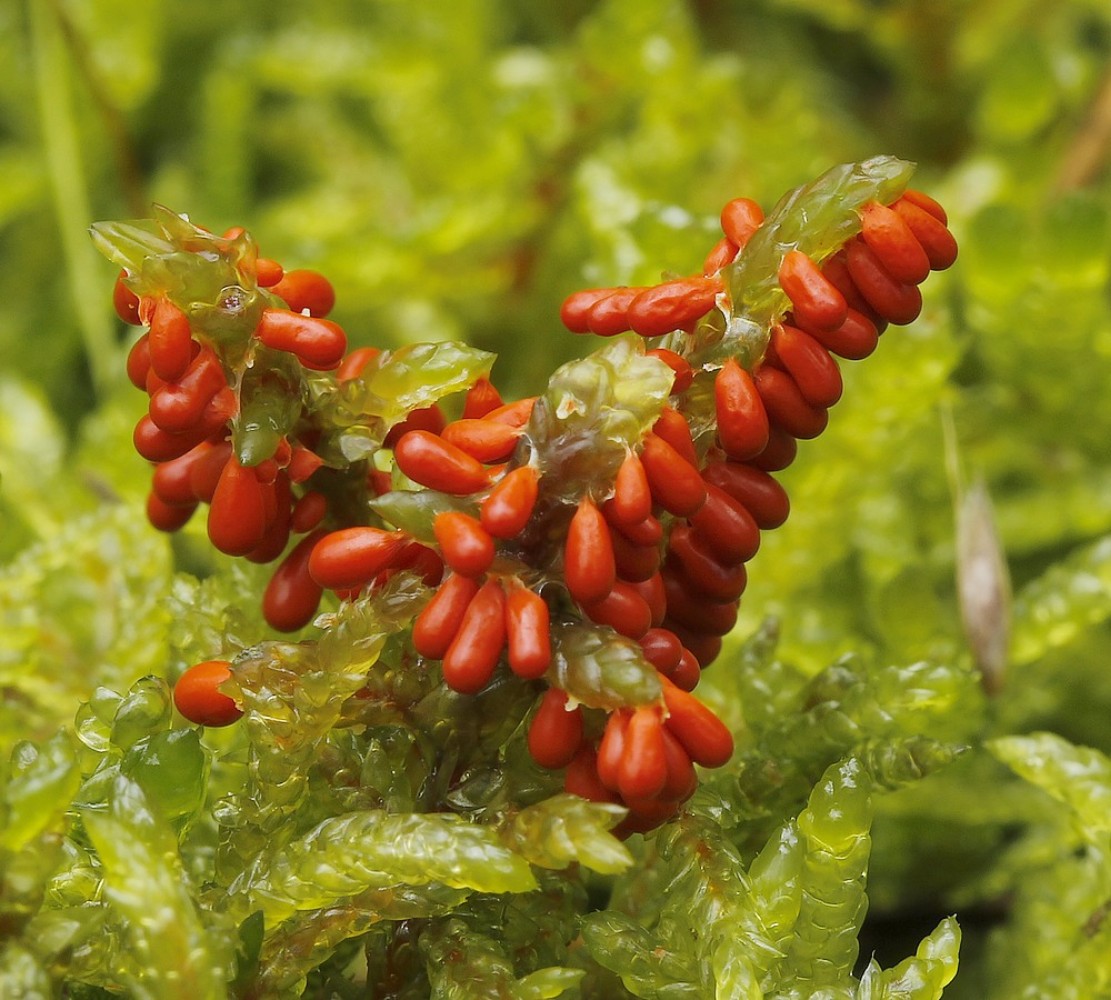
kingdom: Protozoa
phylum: Mycetozoa
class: Myxomycetes
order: Physarales
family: Physaraceae
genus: Leocarpus
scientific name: Leocarpus fragilis
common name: poleret glatfrø
